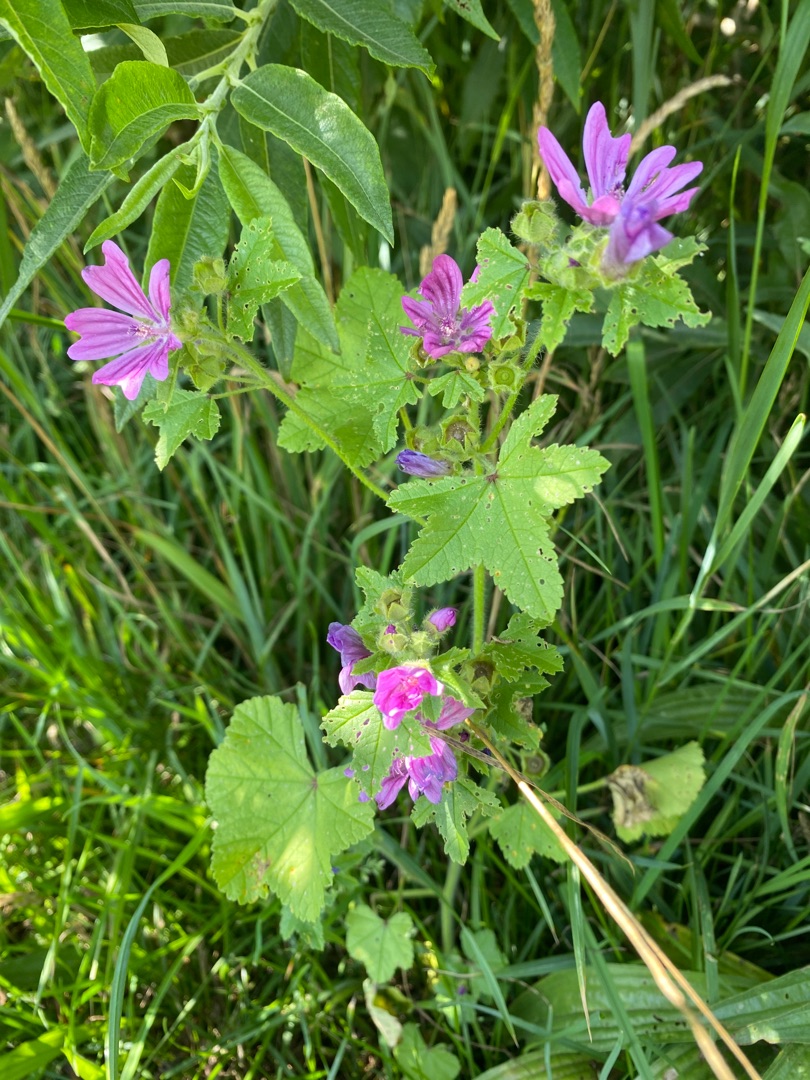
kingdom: Plantae
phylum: Tracheophyta
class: Magnoliopsida
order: Malvales
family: Malvaceae
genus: Malva
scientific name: Malva sylvestris
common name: Almindelig katost
